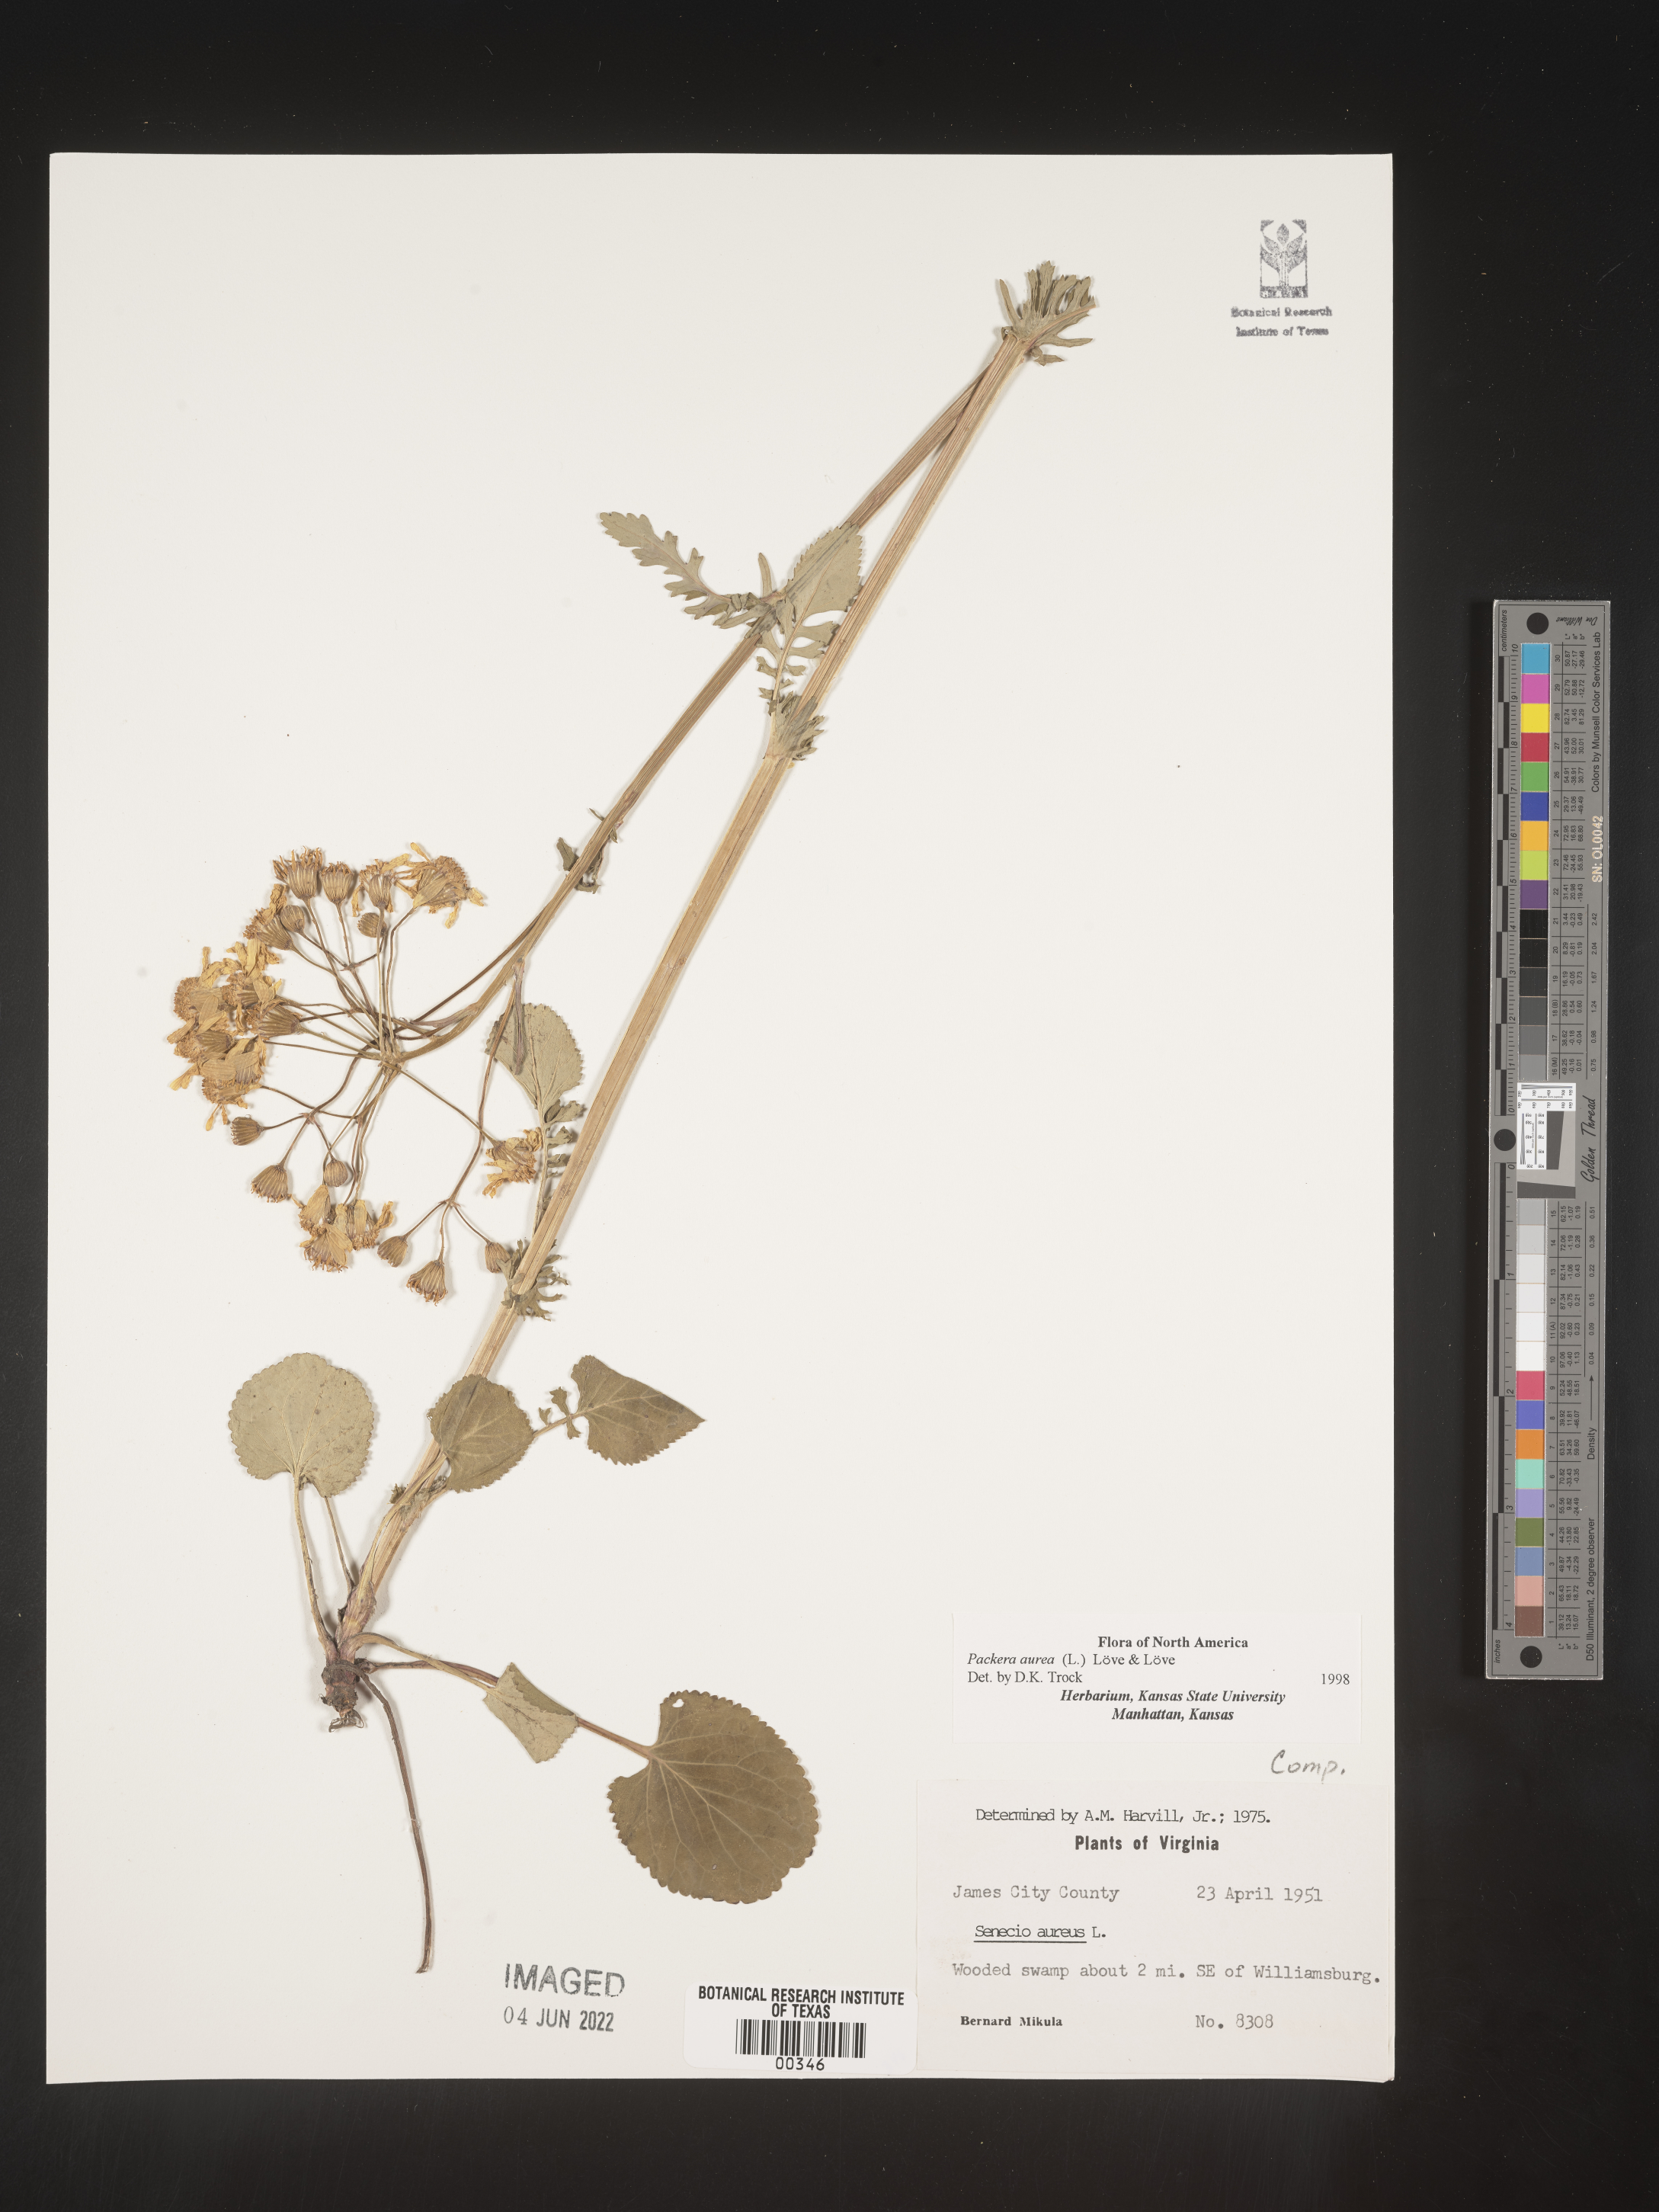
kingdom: Plantae
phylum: Tracheophyta
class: Magnoliopsida
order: Asterales
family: Asteraceae
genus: Packera
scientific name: Packera aurea
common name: Golden groundsel
